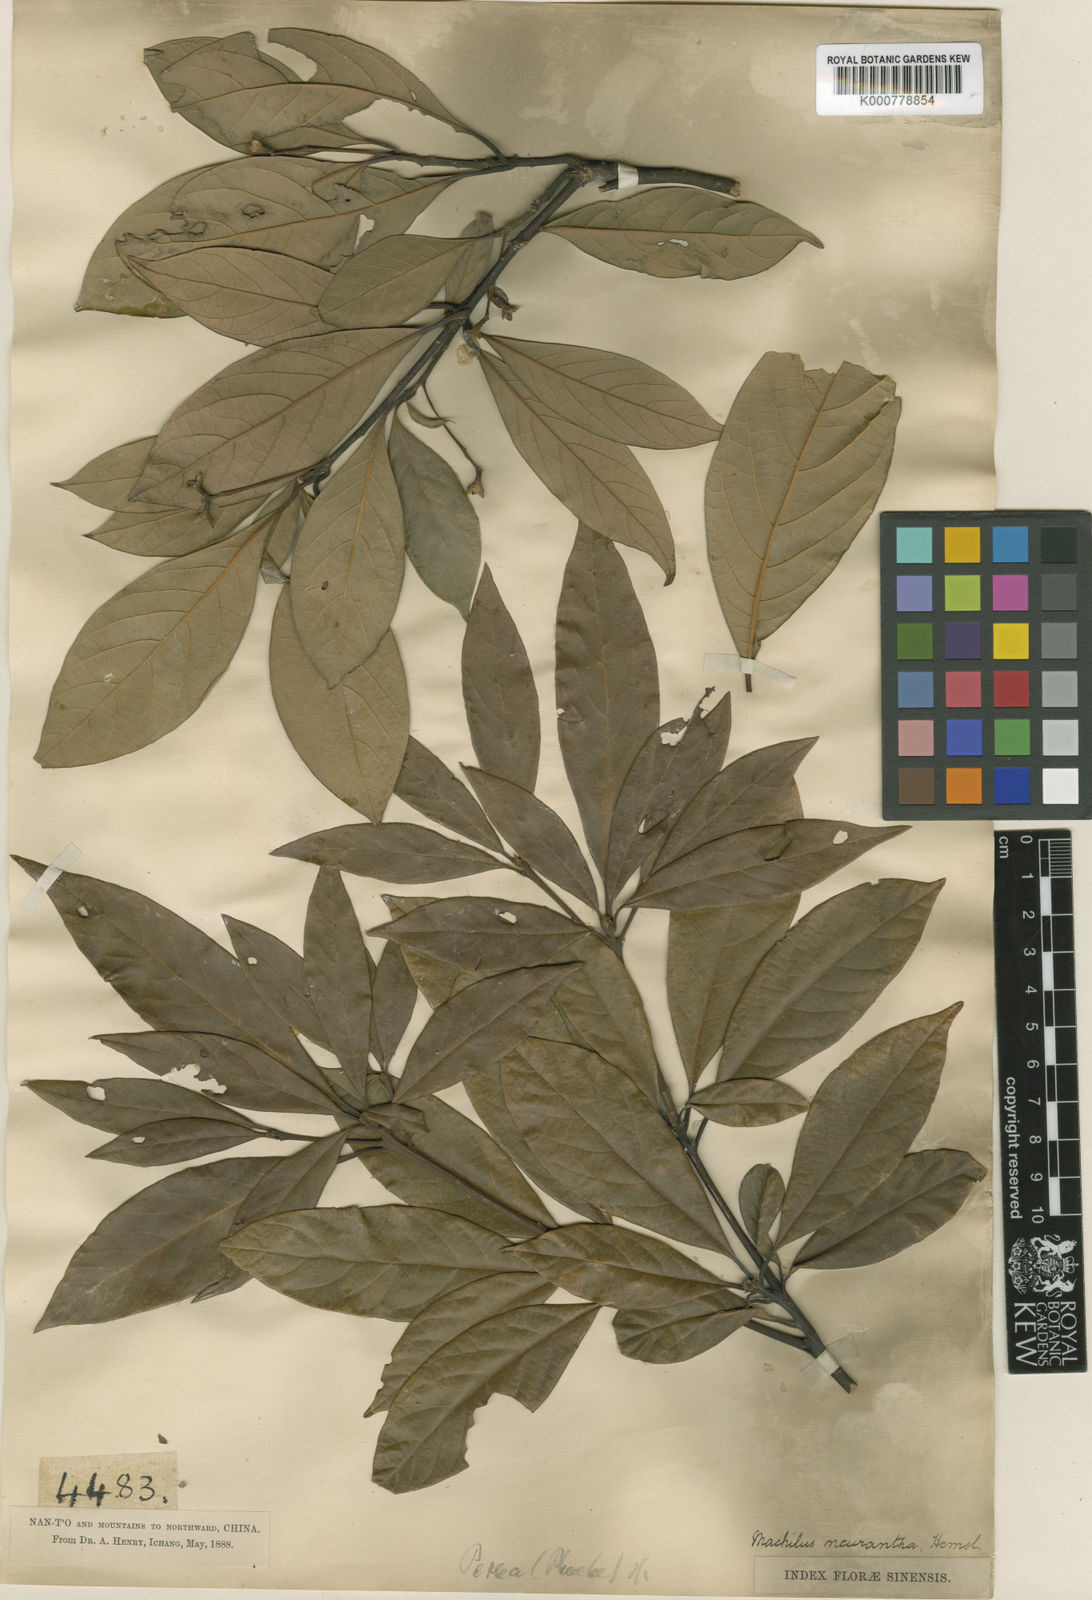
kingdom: Plantae
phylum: Tracheophyta
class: Magnoliopsida
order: Laurales
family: Lauraceae
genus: Phoebe
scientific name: Phoebe neurantha
